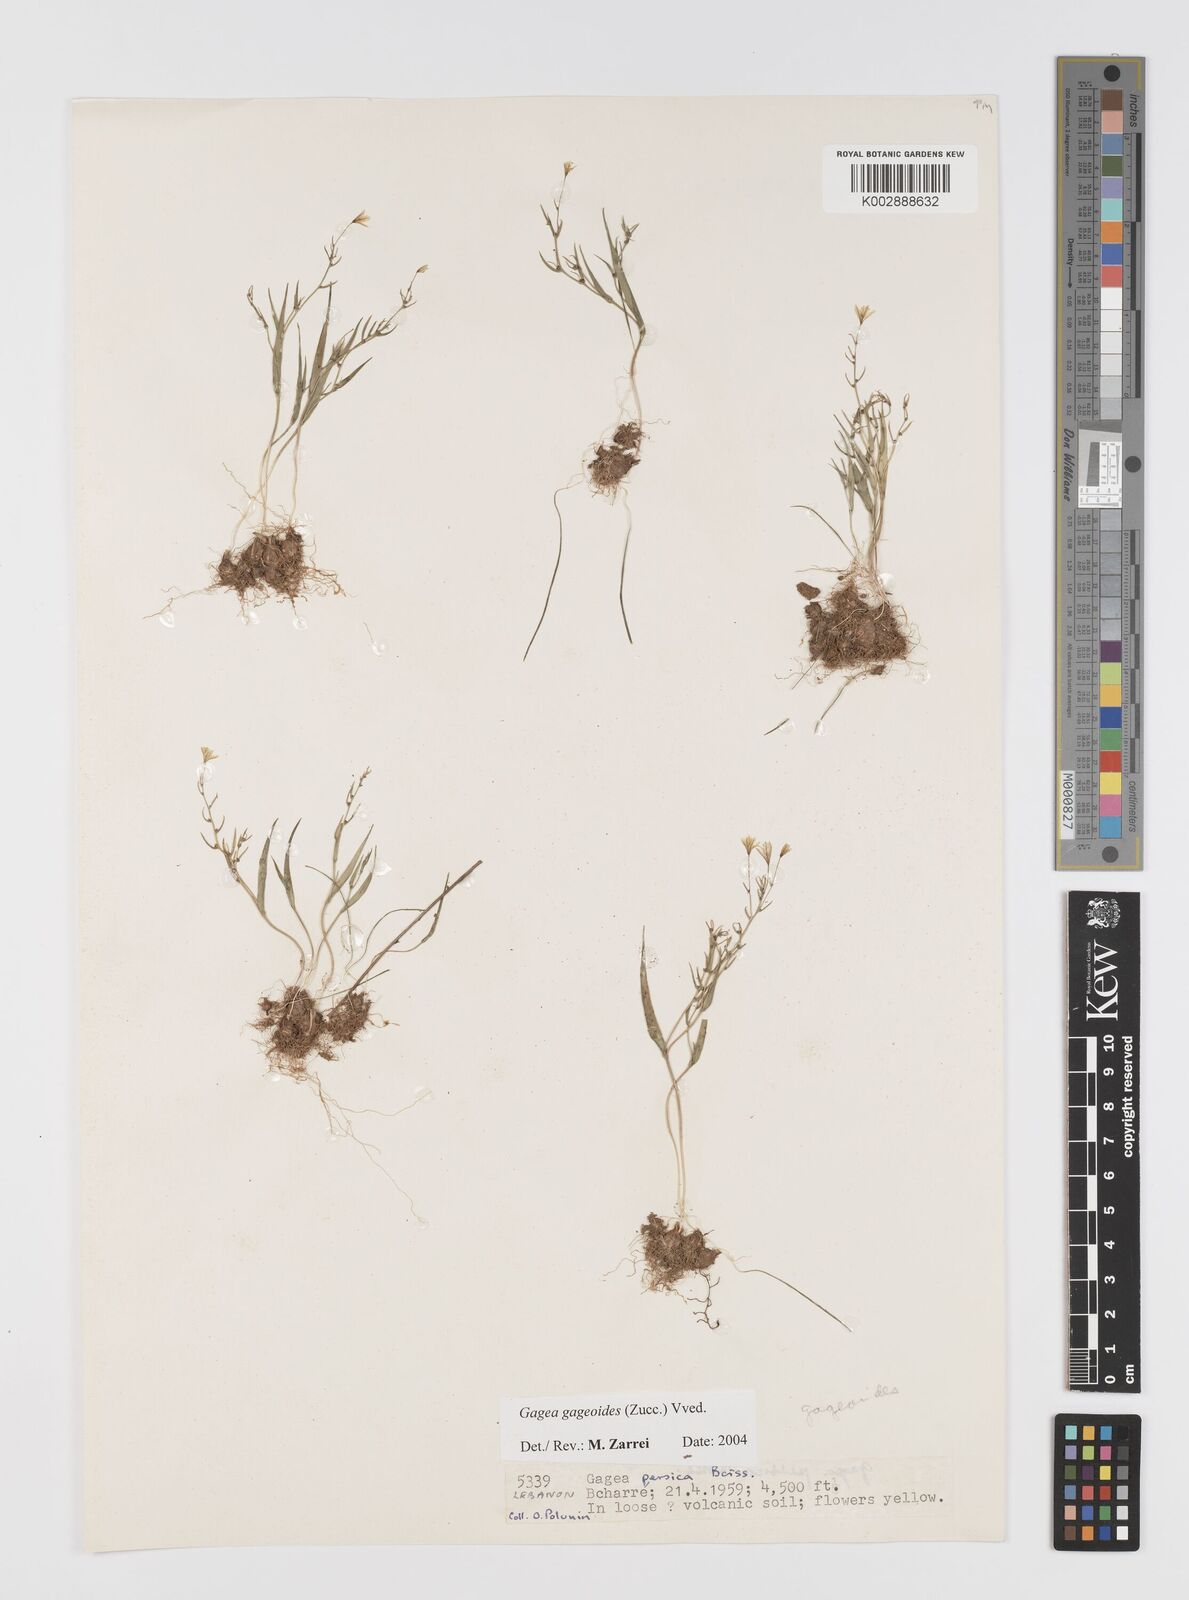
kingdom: Plantae
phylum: Tracheophyta
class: Liliopsida
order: Liliales
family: Liliaceae
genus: Gagea
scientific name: Gagea gageoides
